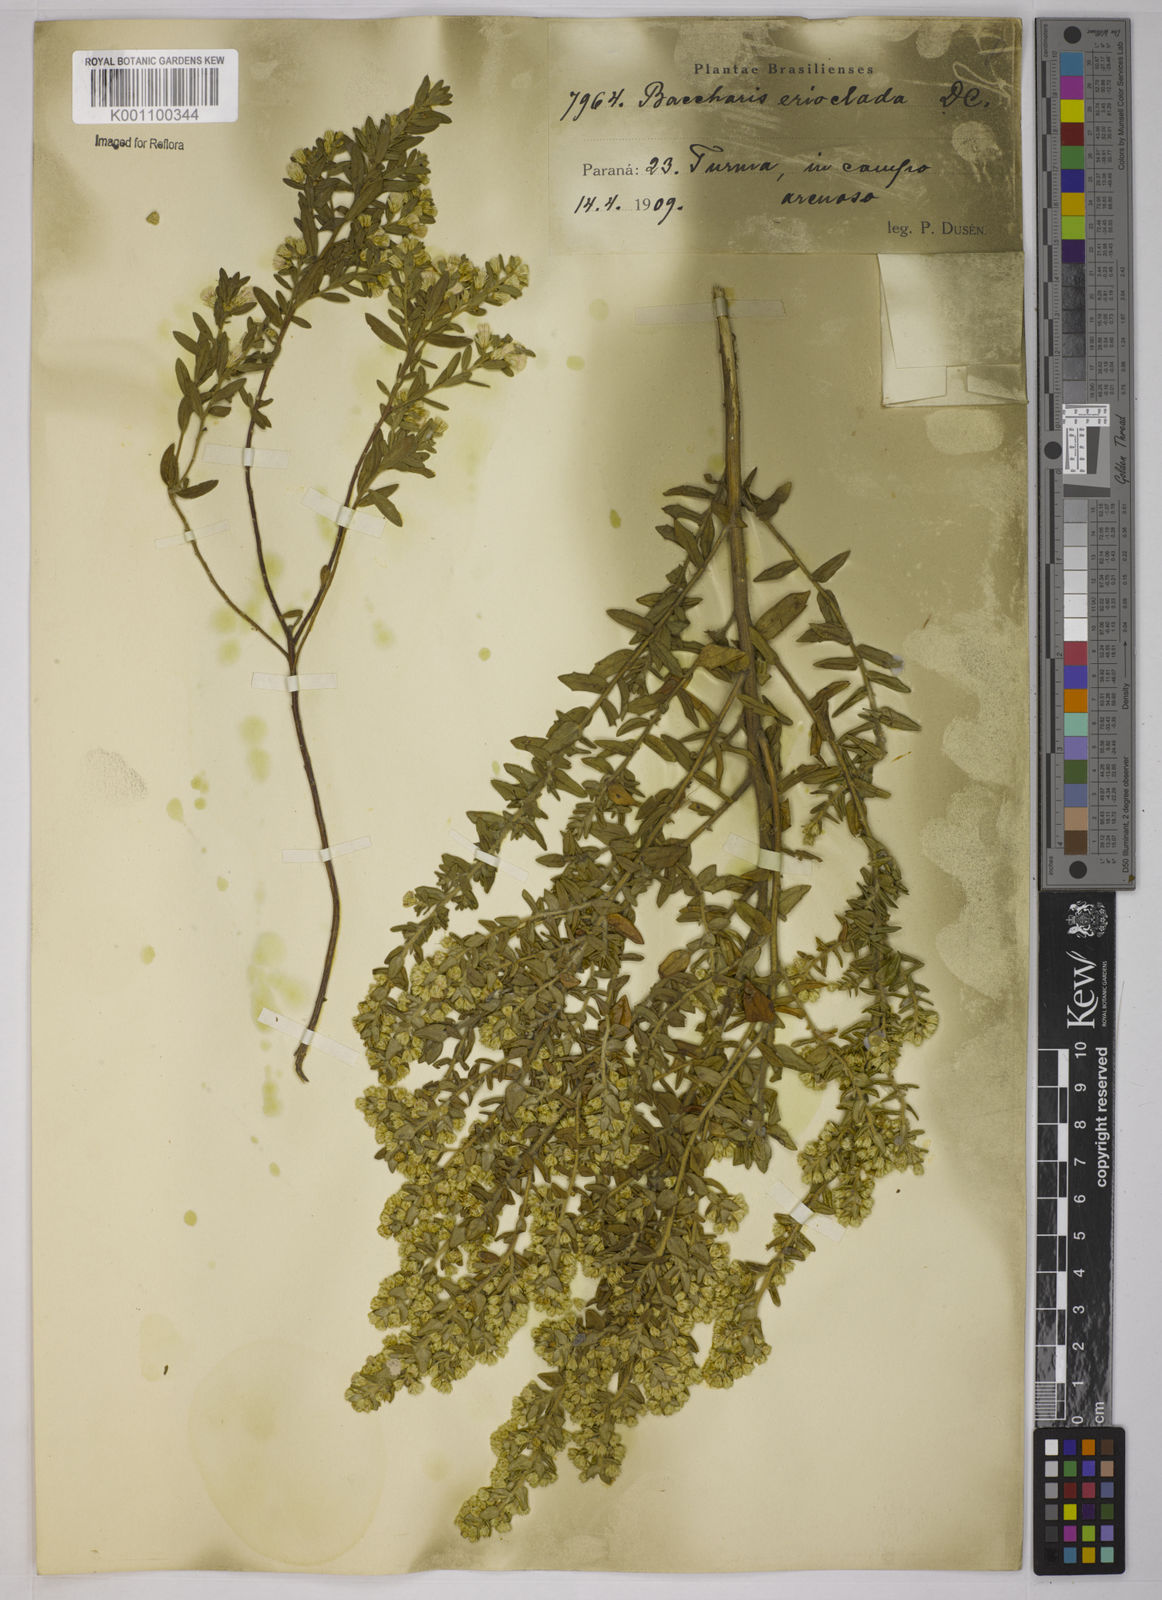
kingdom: Plantae
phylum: Tracheophyta
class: Magnoliopsida
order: Asterales
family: Asteraceae
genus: Baccharis
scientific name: Baccharis erioclada
